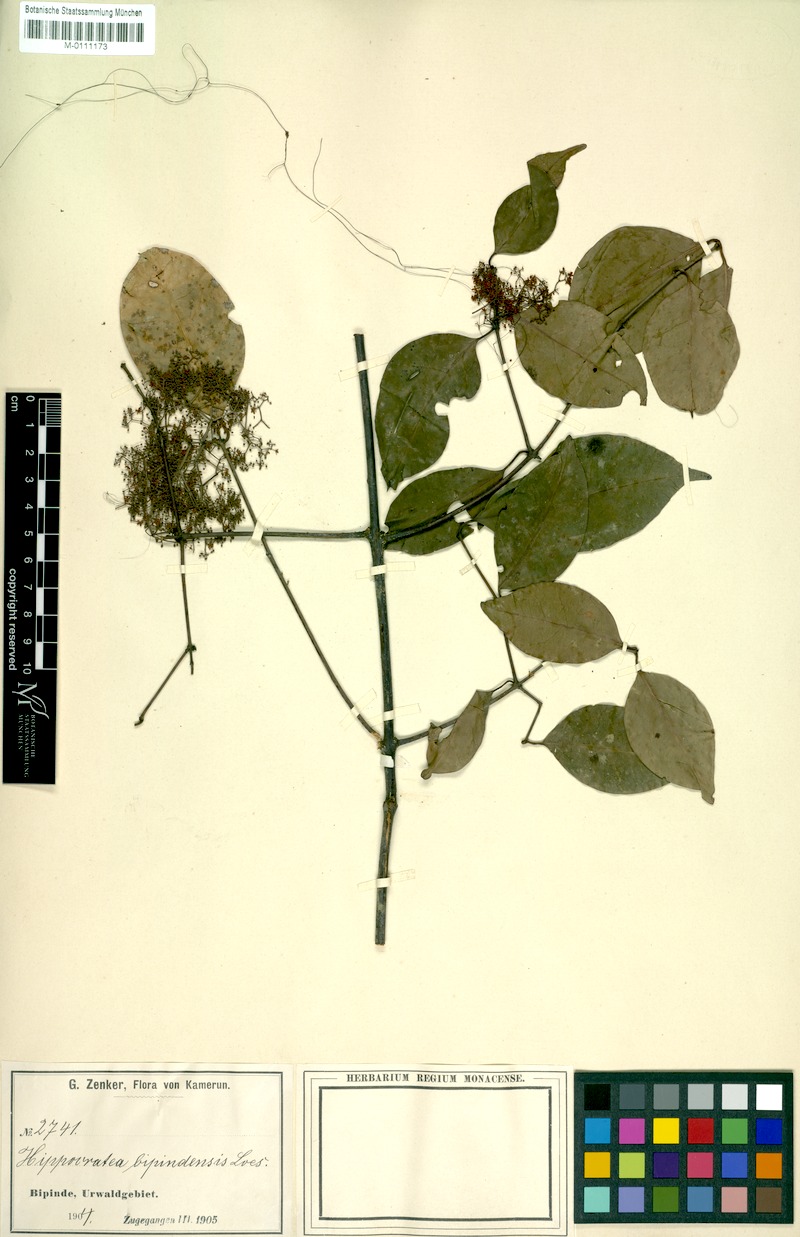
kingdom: Plantae
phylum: Tracheophyta
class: Magnoliopsida
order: Celastrales
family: Celastraceae
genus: Elachyptera
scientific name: Elachyptera bipindensis
